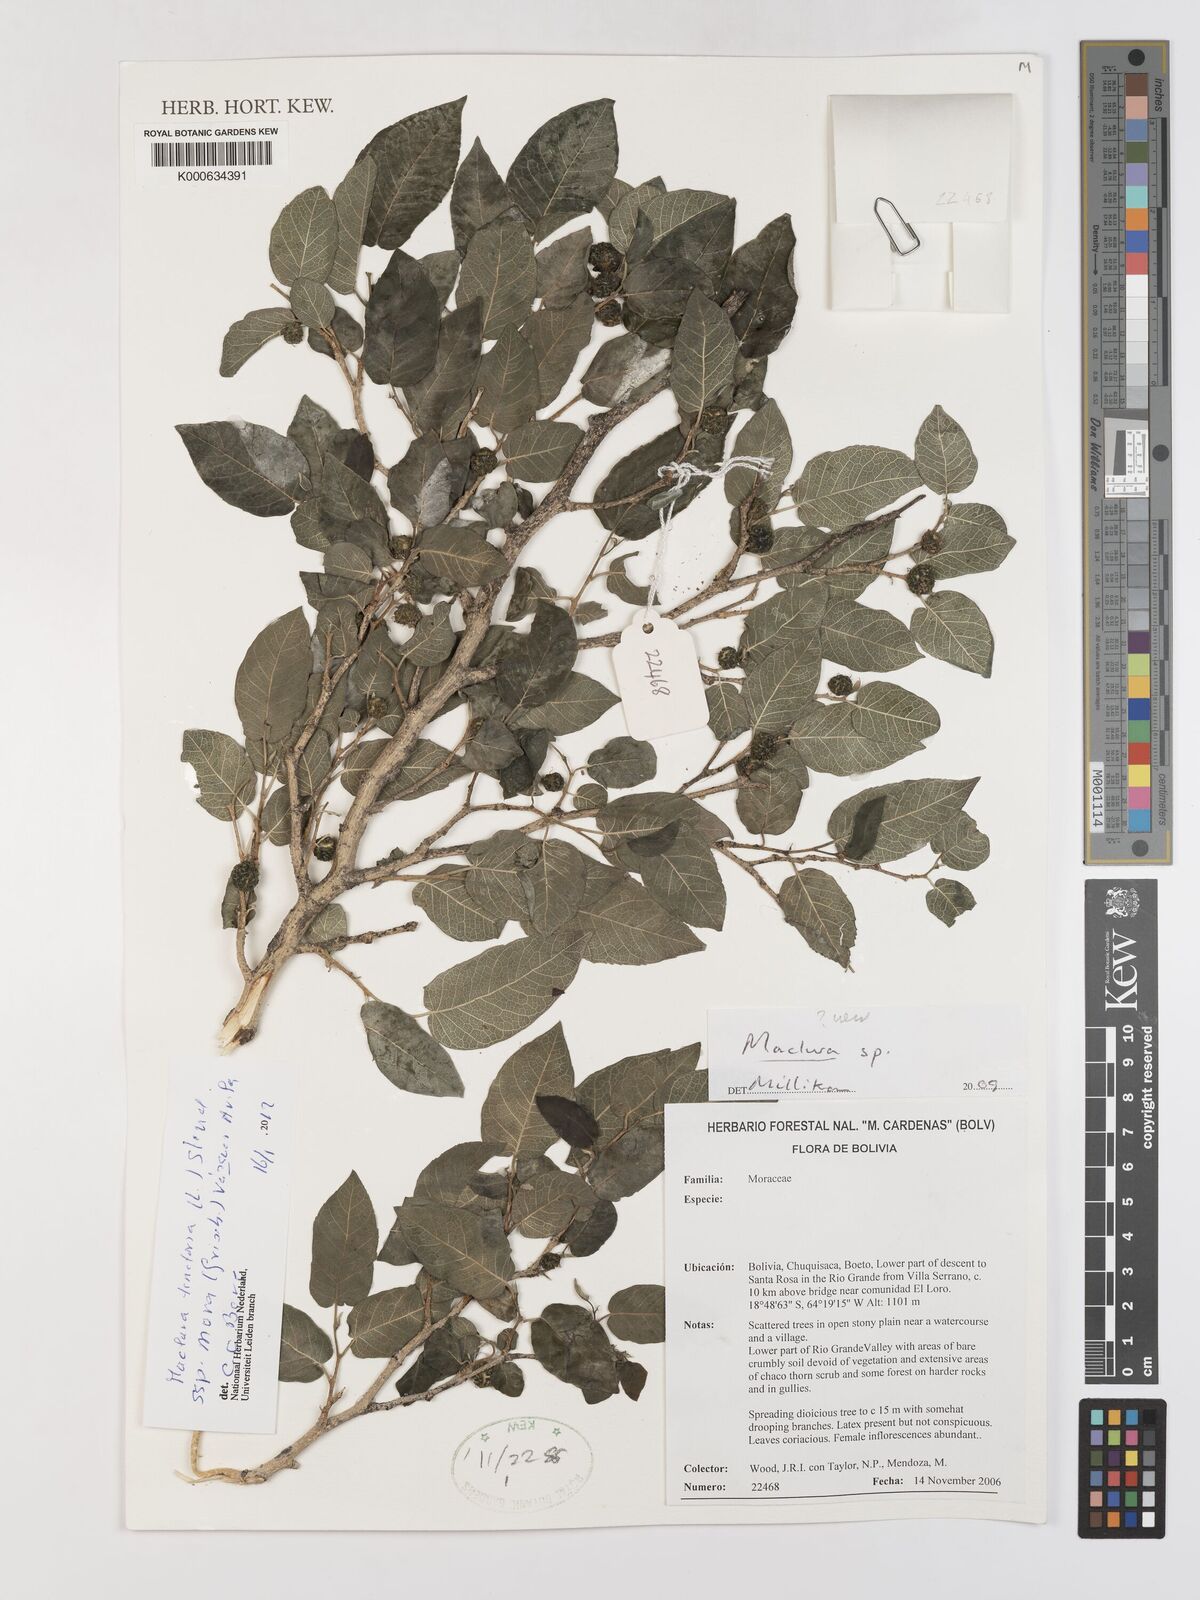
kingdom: Plantae
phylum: Tracheophyta
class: Magnoliopsida
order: Rosales
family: Moraceae
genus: Maclura
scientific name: Maclura
